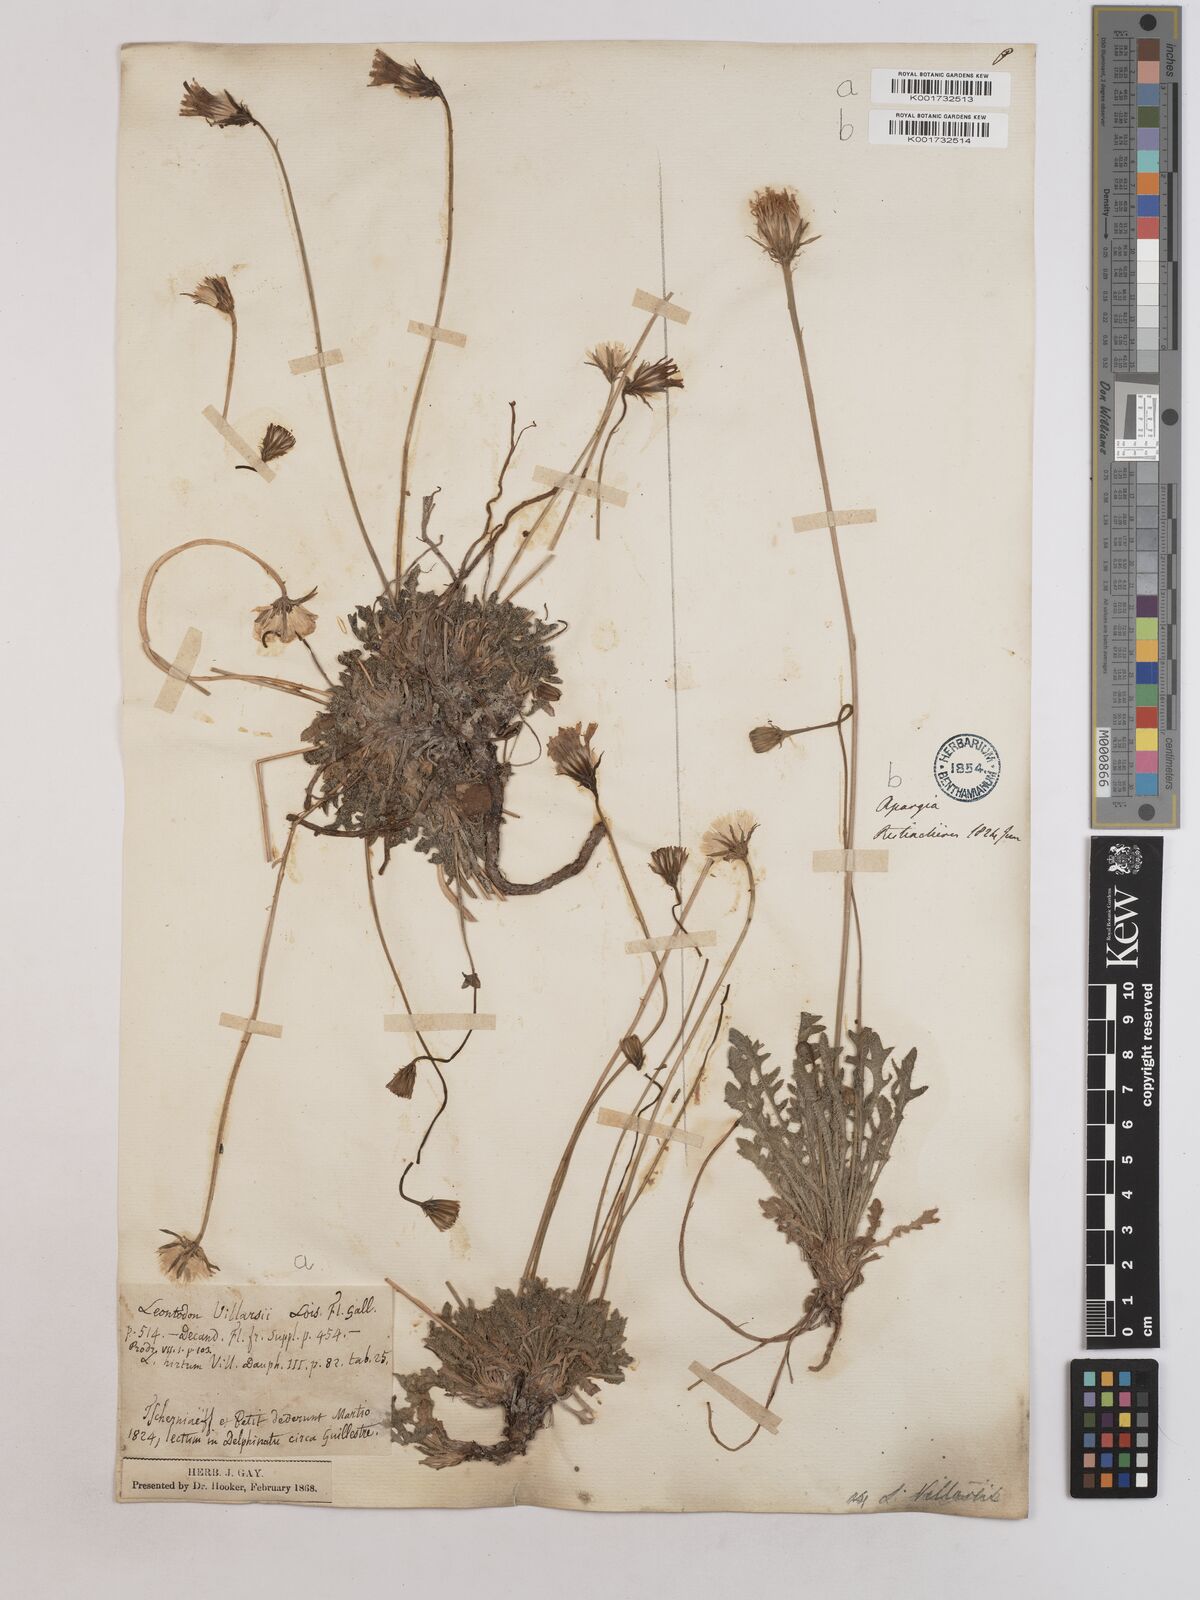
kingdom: Plantae
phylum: Tracheophyta
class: Magnoliopsida
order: Asterales
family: Asteraceae
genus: Leontodon
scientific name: Leontodon hirtus
